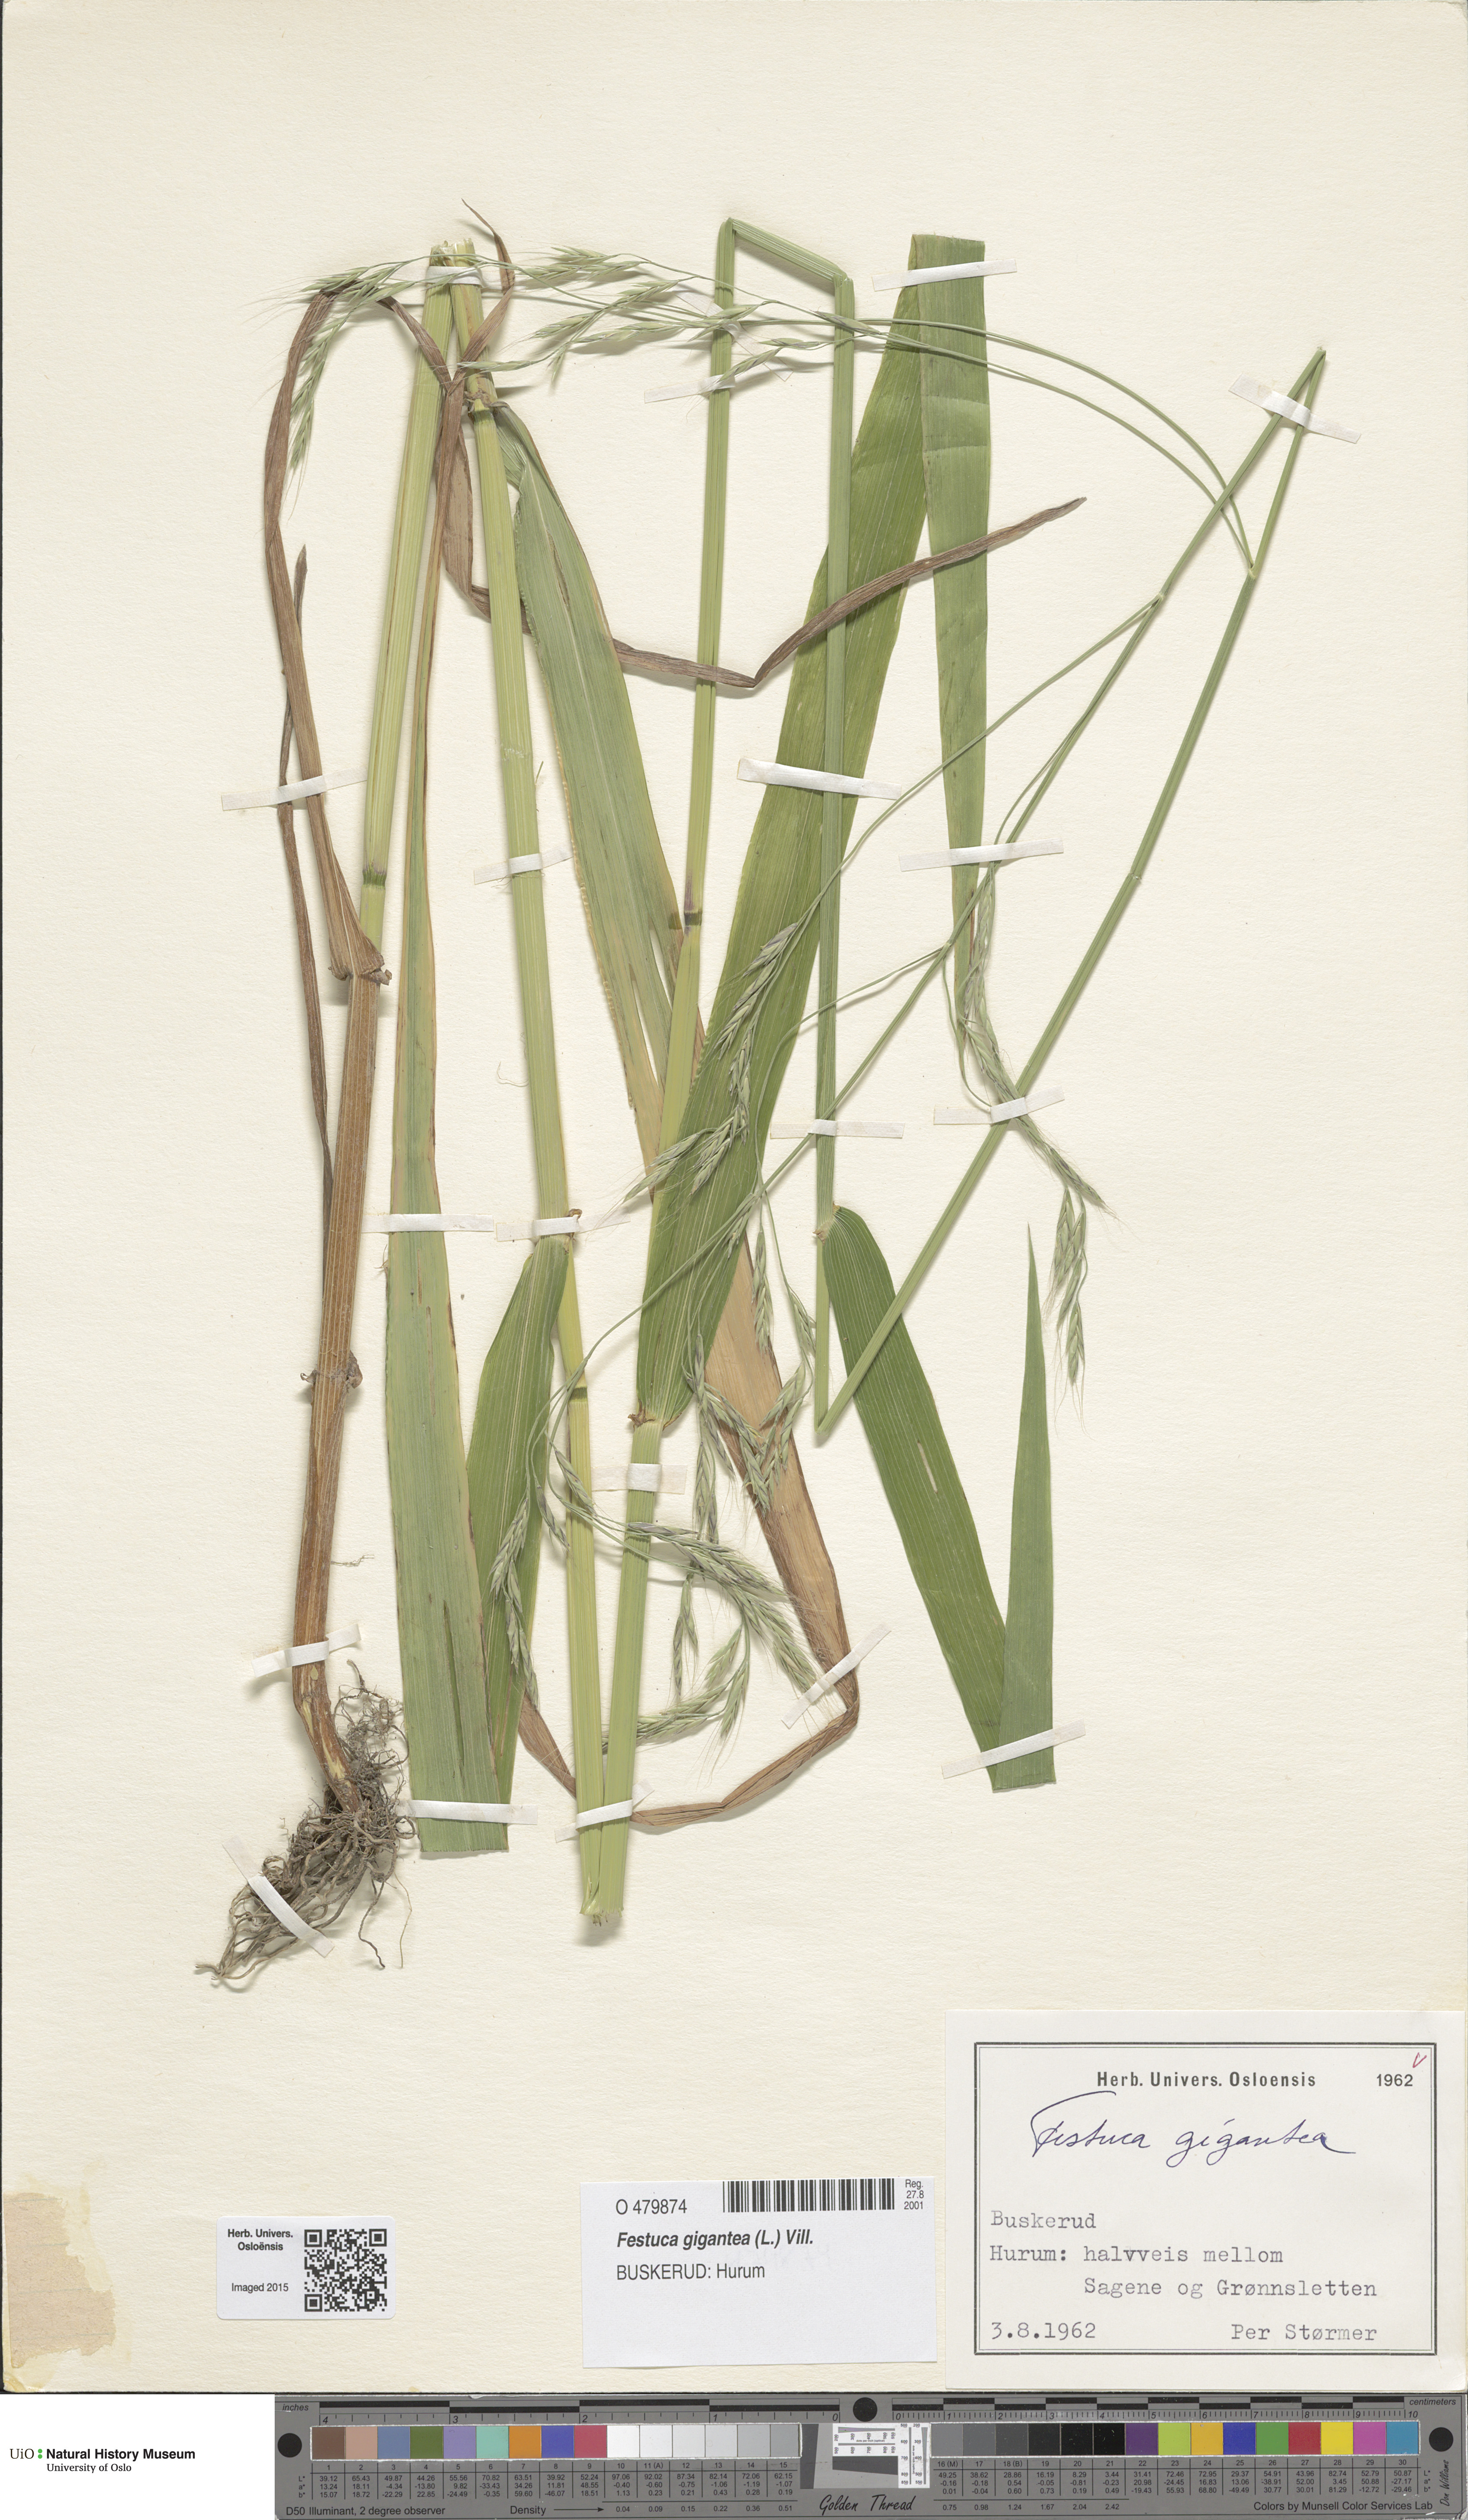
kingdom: Plantae
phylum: Tracheophyta
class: Liliopsida
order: Poales
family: Poaceae
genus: Lolium
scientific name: Lolium giganteum
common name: Giant fescue
